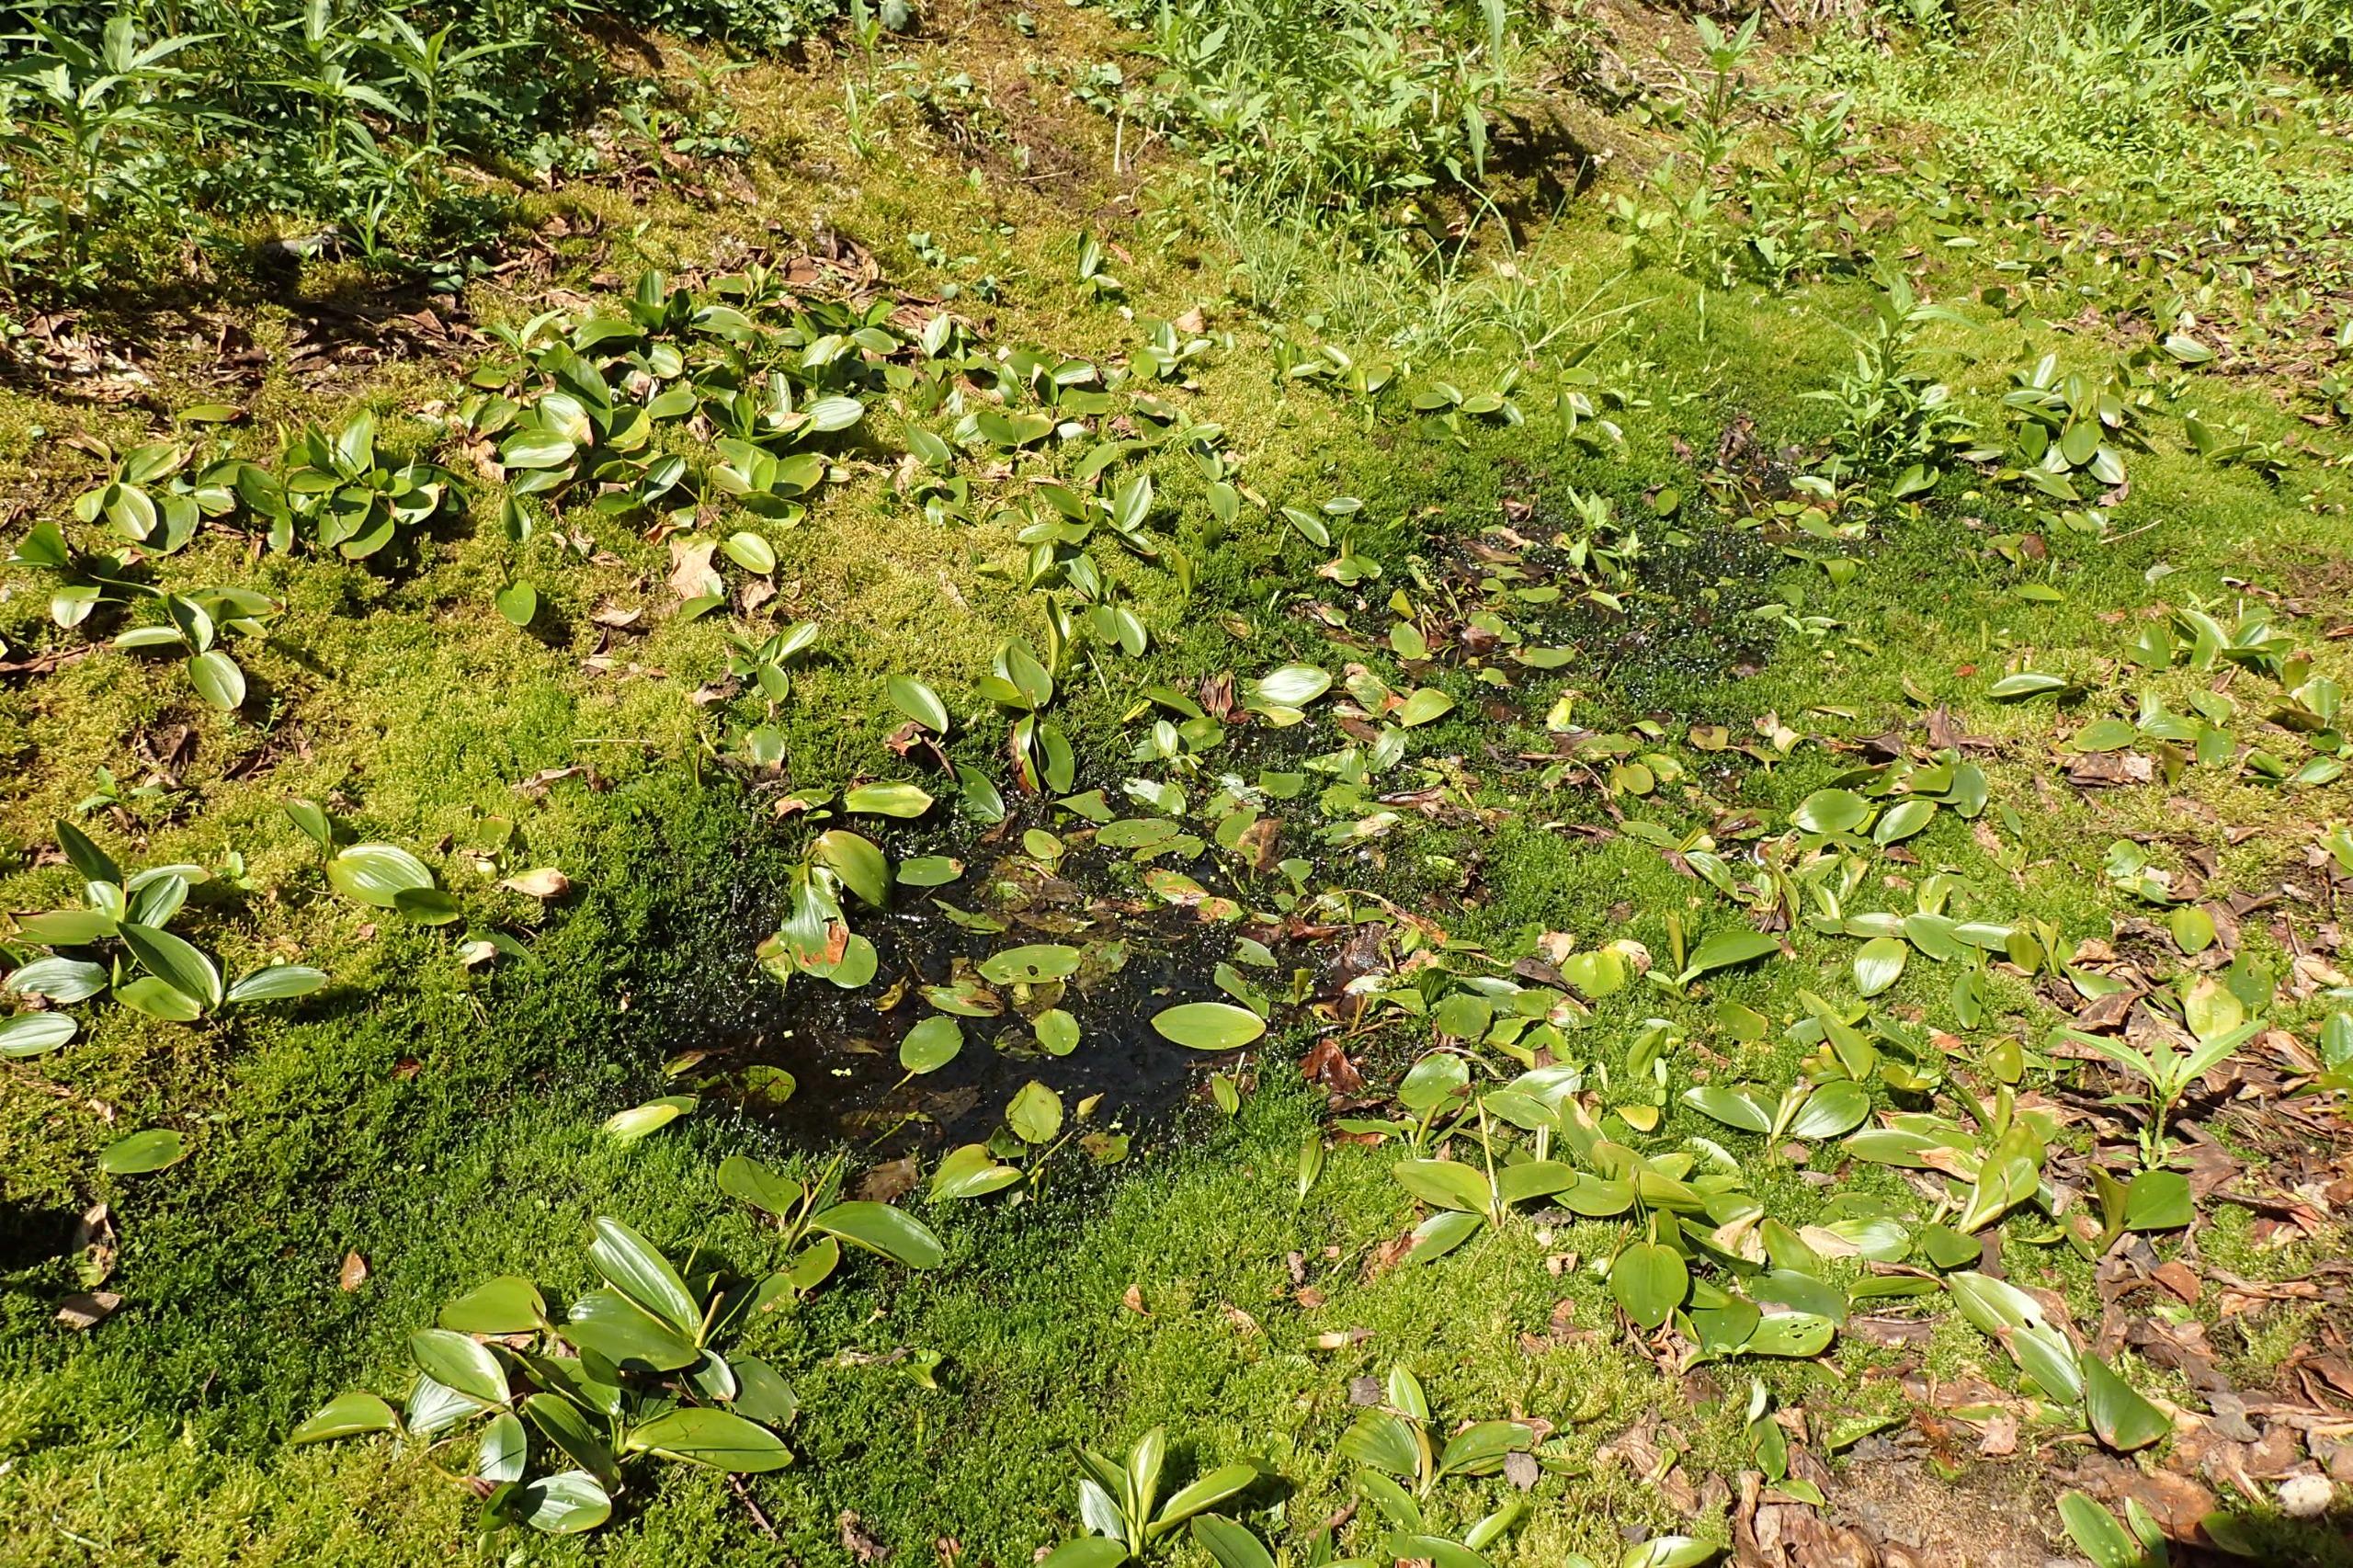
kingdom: Plantae
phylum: Tracheophyta
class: Liliopsida
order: Alismatales
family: Potamogetonaceae
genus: Potamogeton
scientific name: Potamogeton natans
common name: Svømmende vandaks
